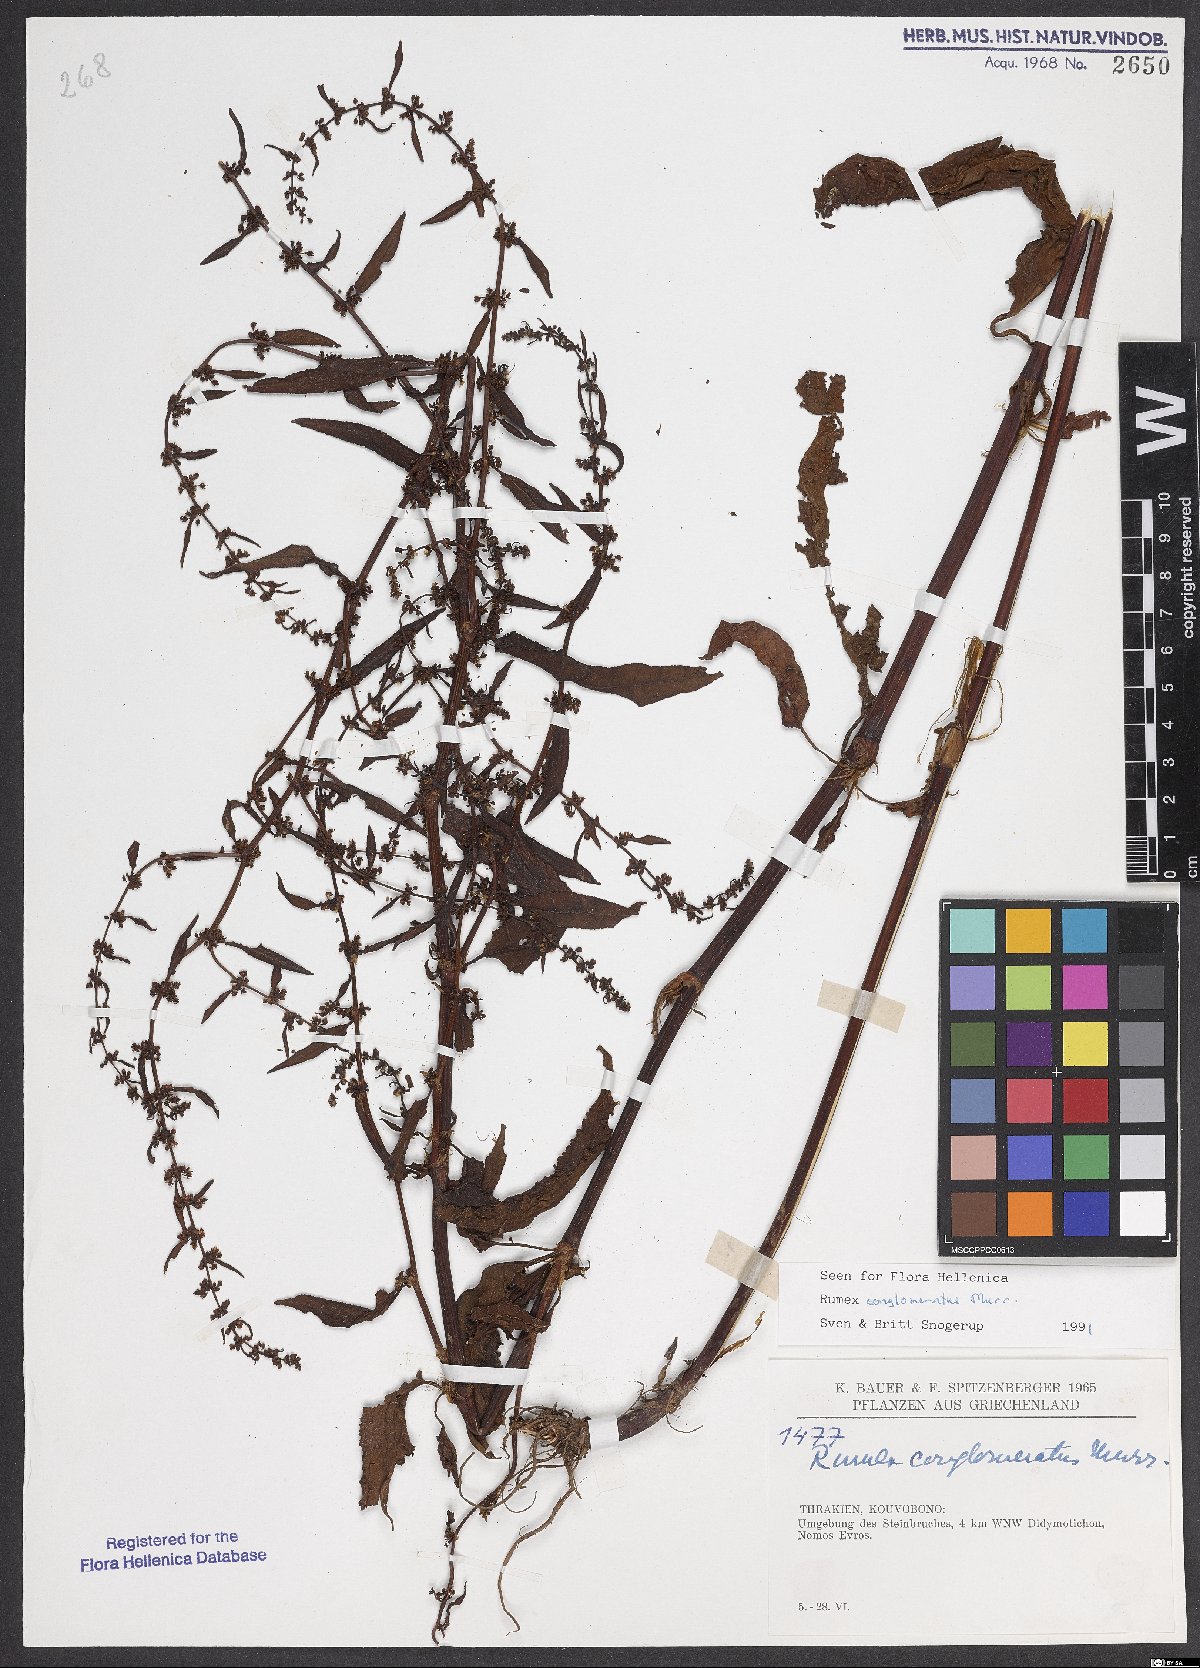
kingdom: Plantae
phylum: Tracheophyta
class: Magnoliopsida
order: Caryophyllales
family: Polygonaceae
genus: Rumex
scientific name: Rumex conglomeratus
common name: Clustered dock
